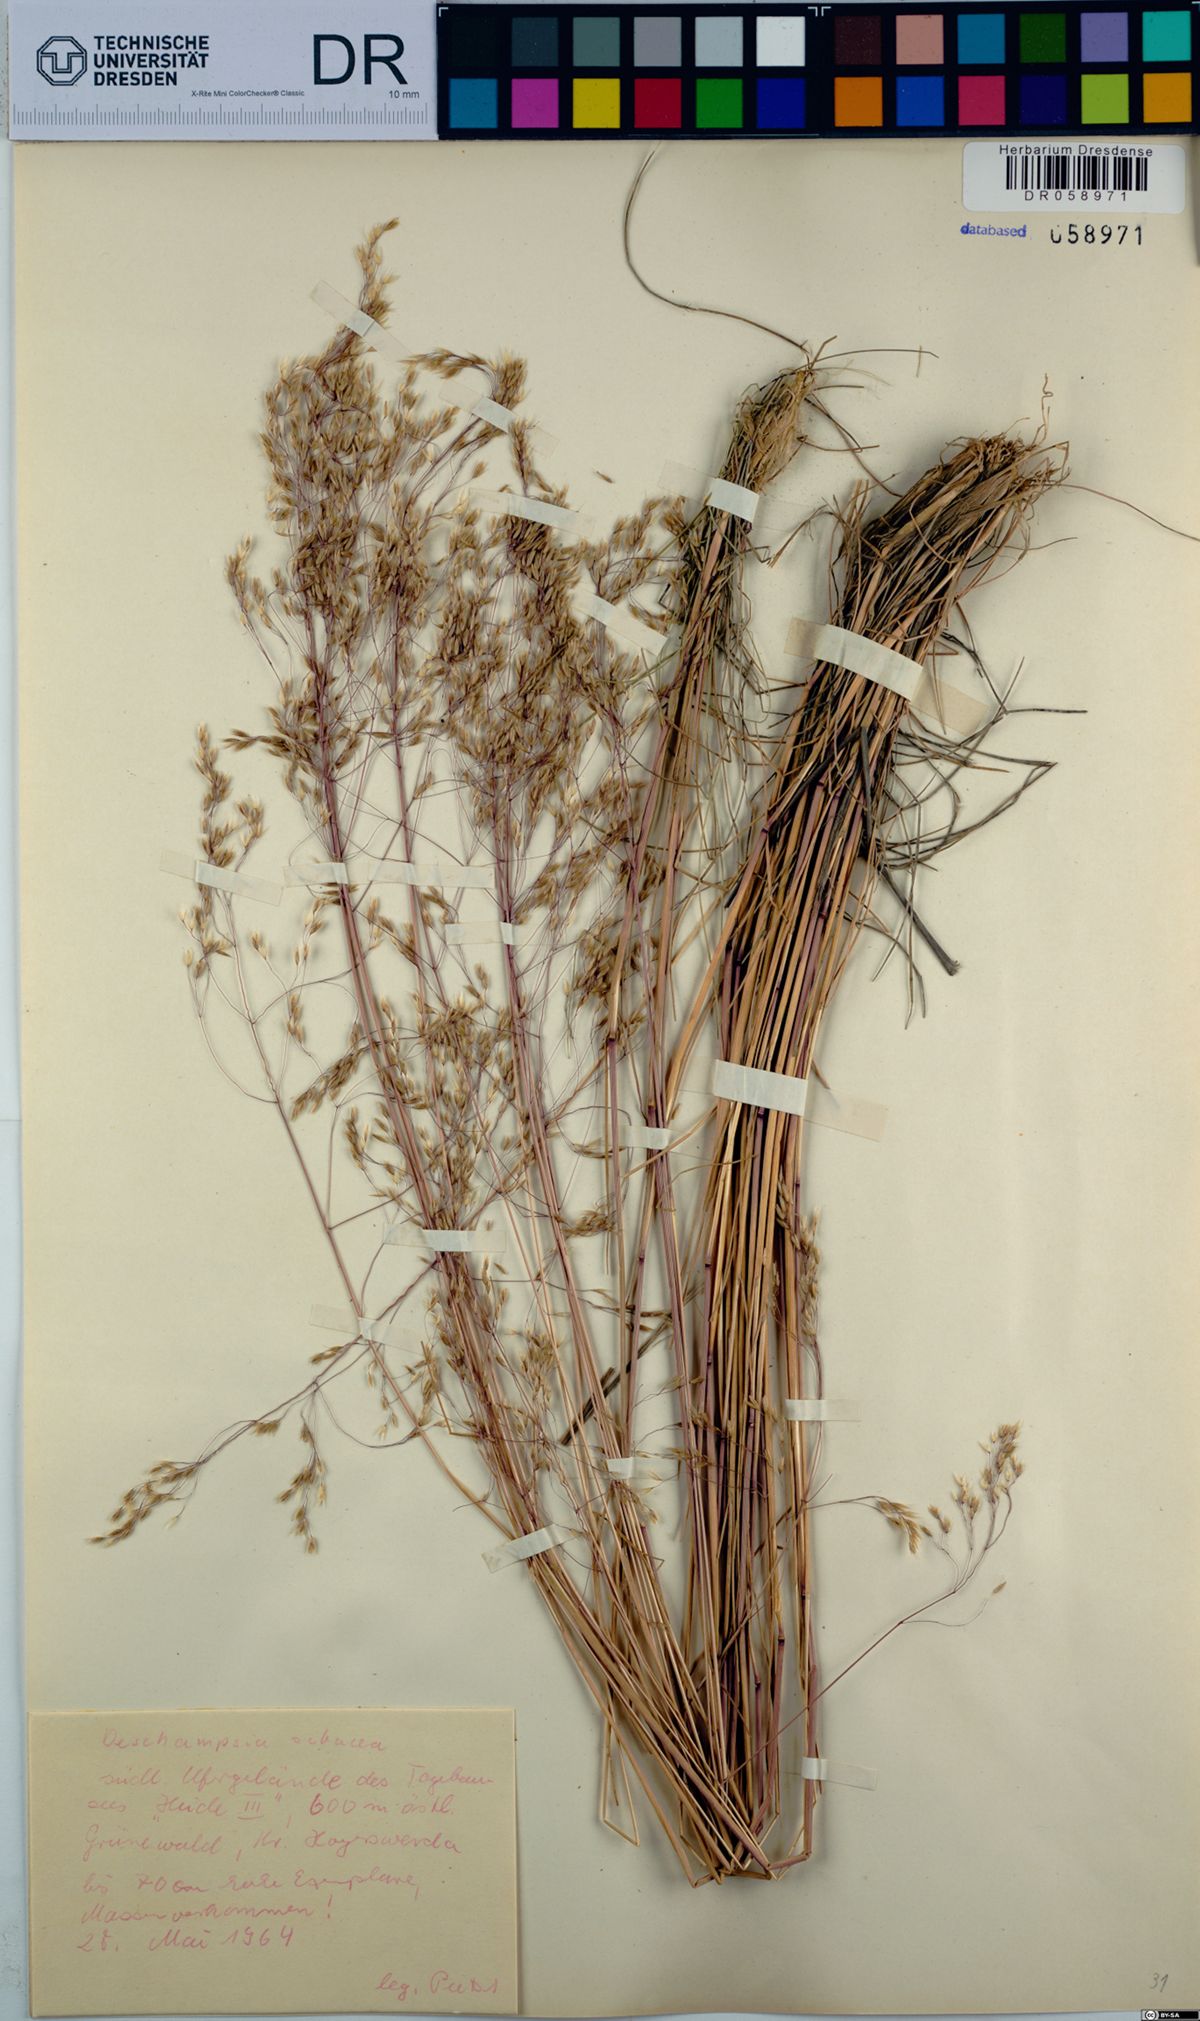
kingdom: Plantae
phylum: Tracheophyta
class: Liliopsida
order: Poales
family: Poaceae
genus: Deschampsia
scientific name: Deschampsia setacea
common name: Bog hair-grass
